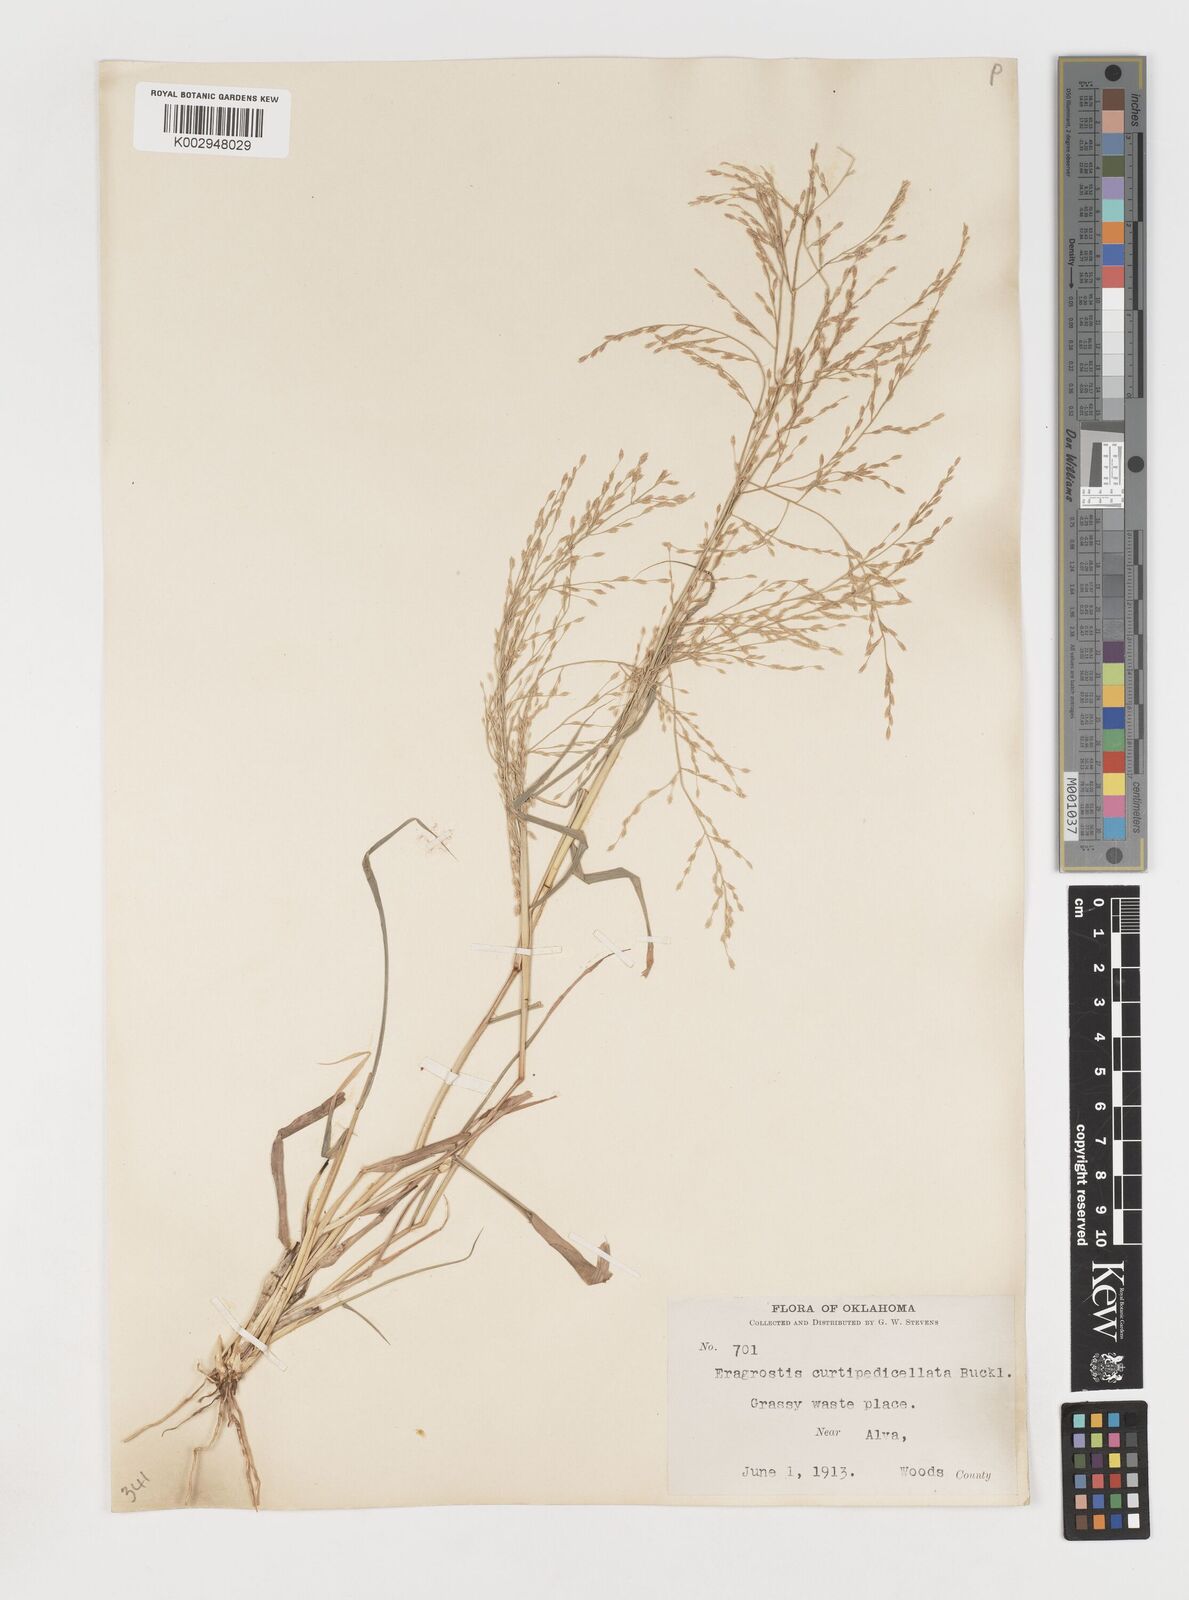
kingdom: Plantae
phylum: Tracheophyta
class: Liliopsida
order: Poales
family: Poaceae
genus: Eragrostis
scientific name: Eragrostis curtipedicellata
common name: Gummy love grass
